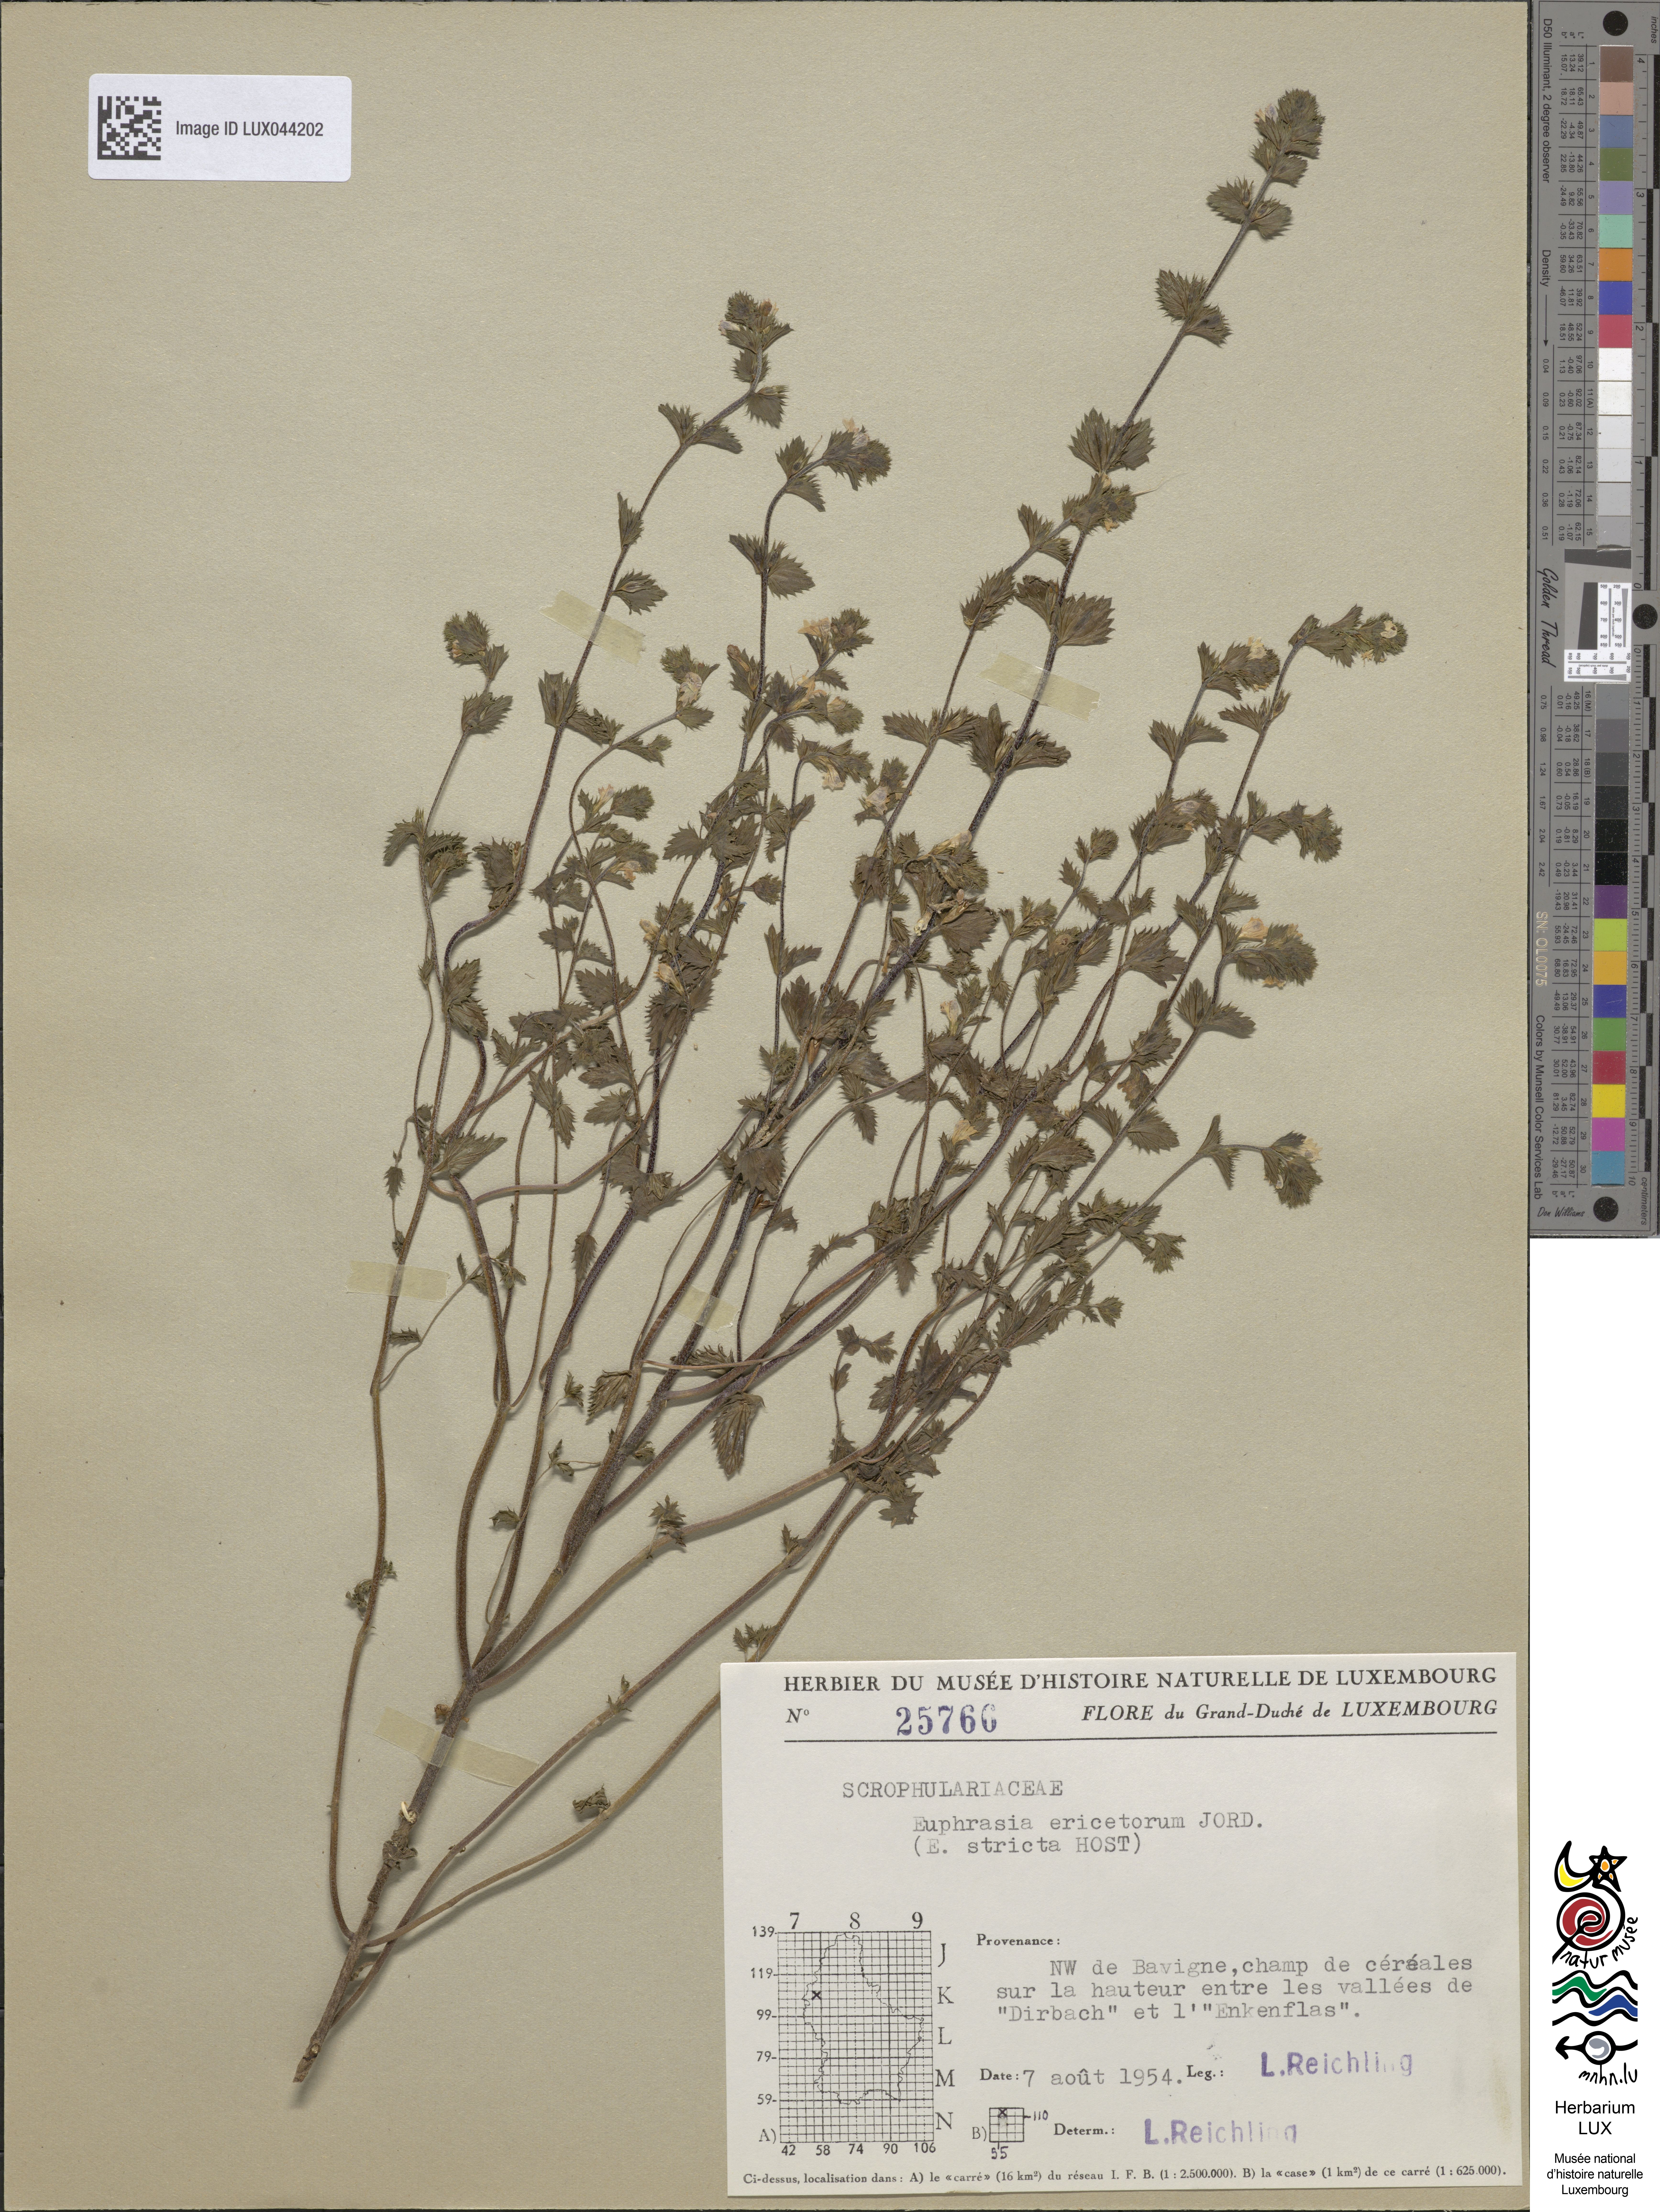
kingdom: Plantae
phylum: Tracheophyta
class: Magnoliopsida
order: Lamiales
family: Orobanchaceae
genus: Euphrasia
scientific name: Euphrasia stricta
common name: Drug eyebright
